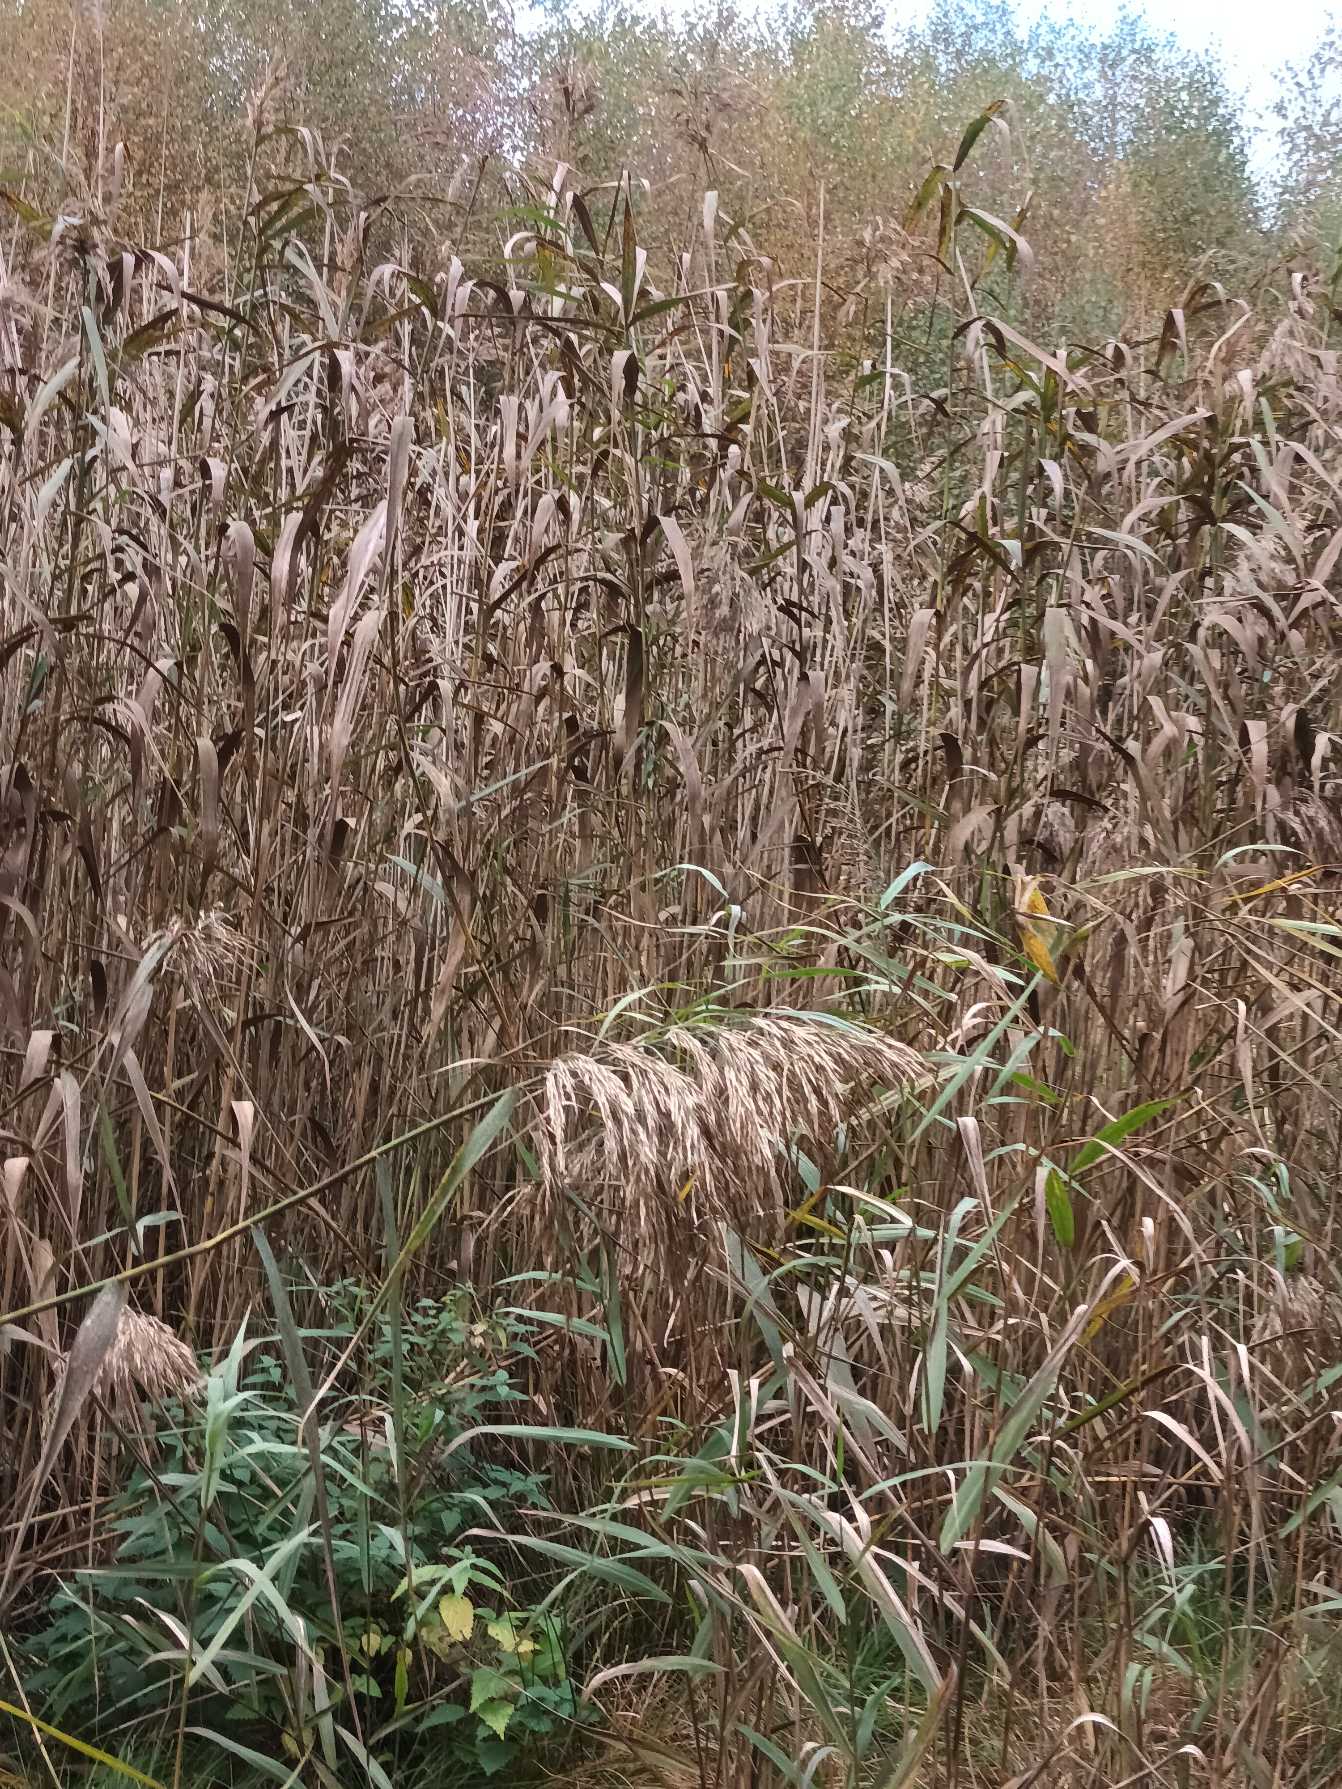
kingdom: Plantae
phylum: Tracheophyta
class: Liliopsida
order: Poales
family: Poaceae
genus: Phragmites
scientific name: Phragmites australis
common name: Tagrør
